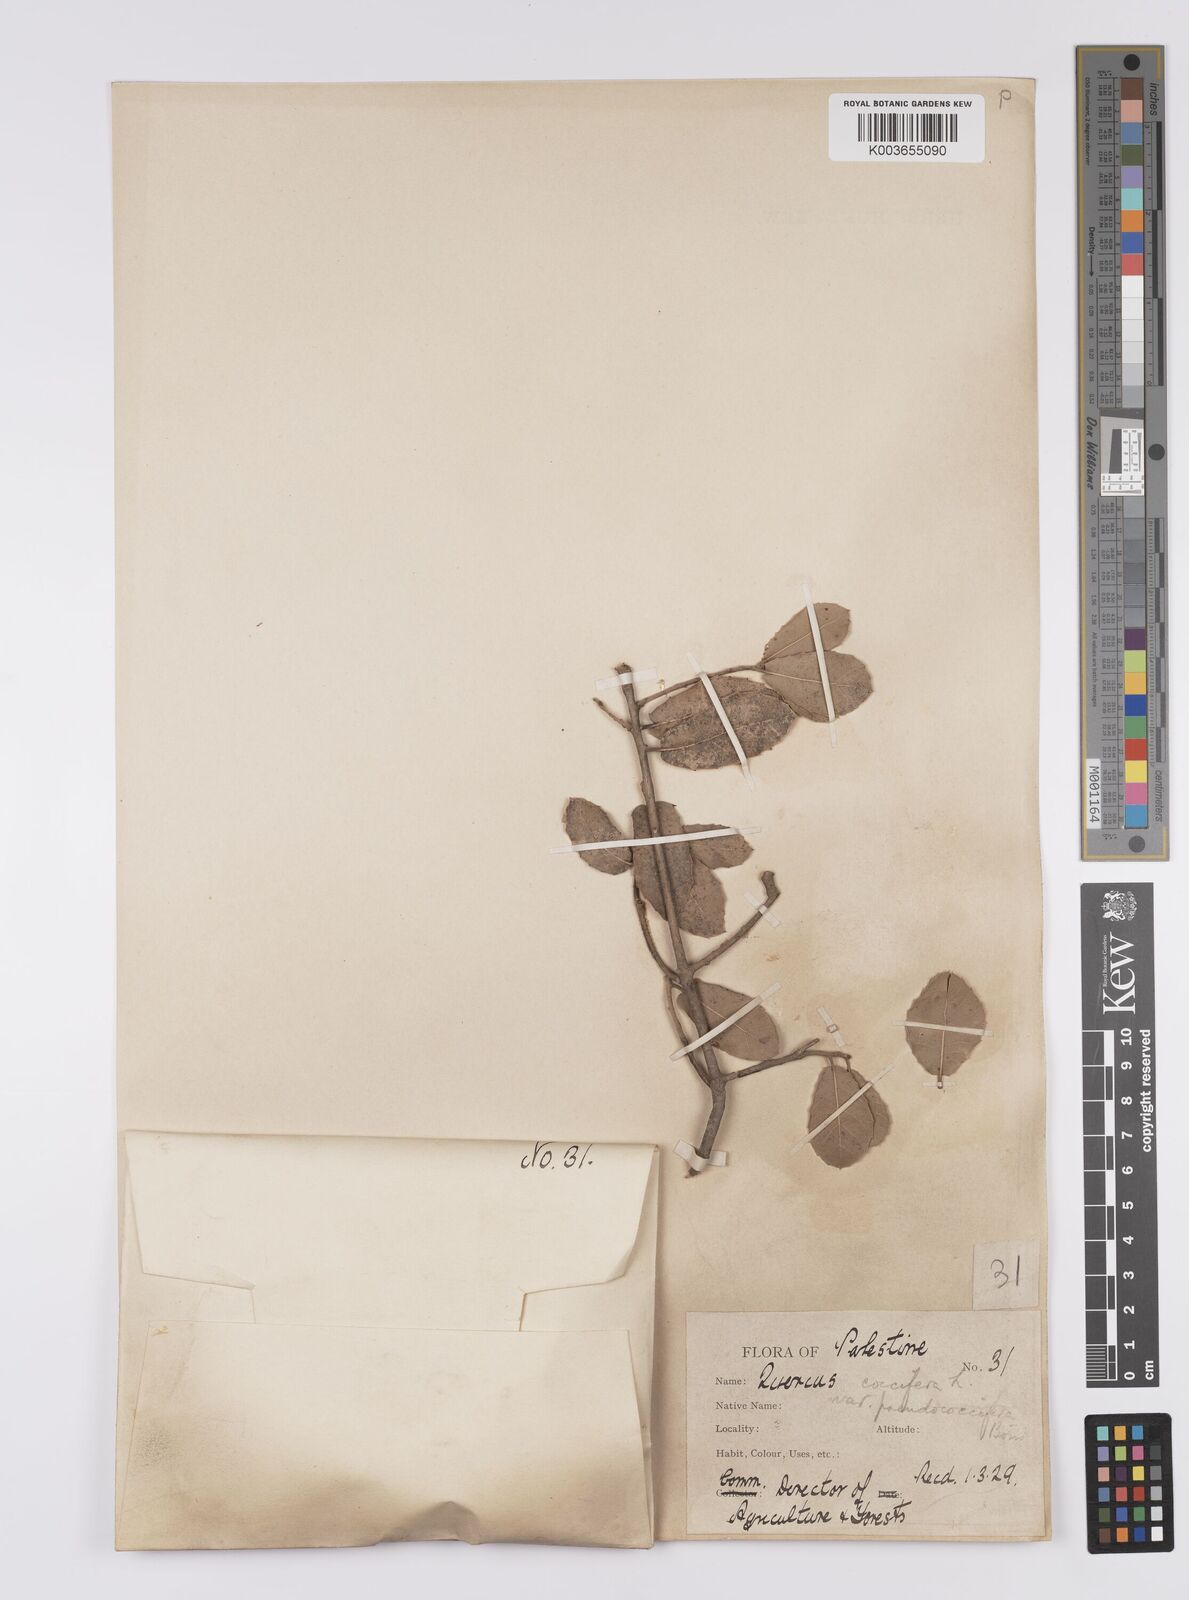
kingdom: Plantae
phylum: Tracheophyta
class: Magnoliopsida
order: Fagales
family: Fagaceae
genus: Quercus
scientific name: Quercus coccifera
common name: Kermes oak
